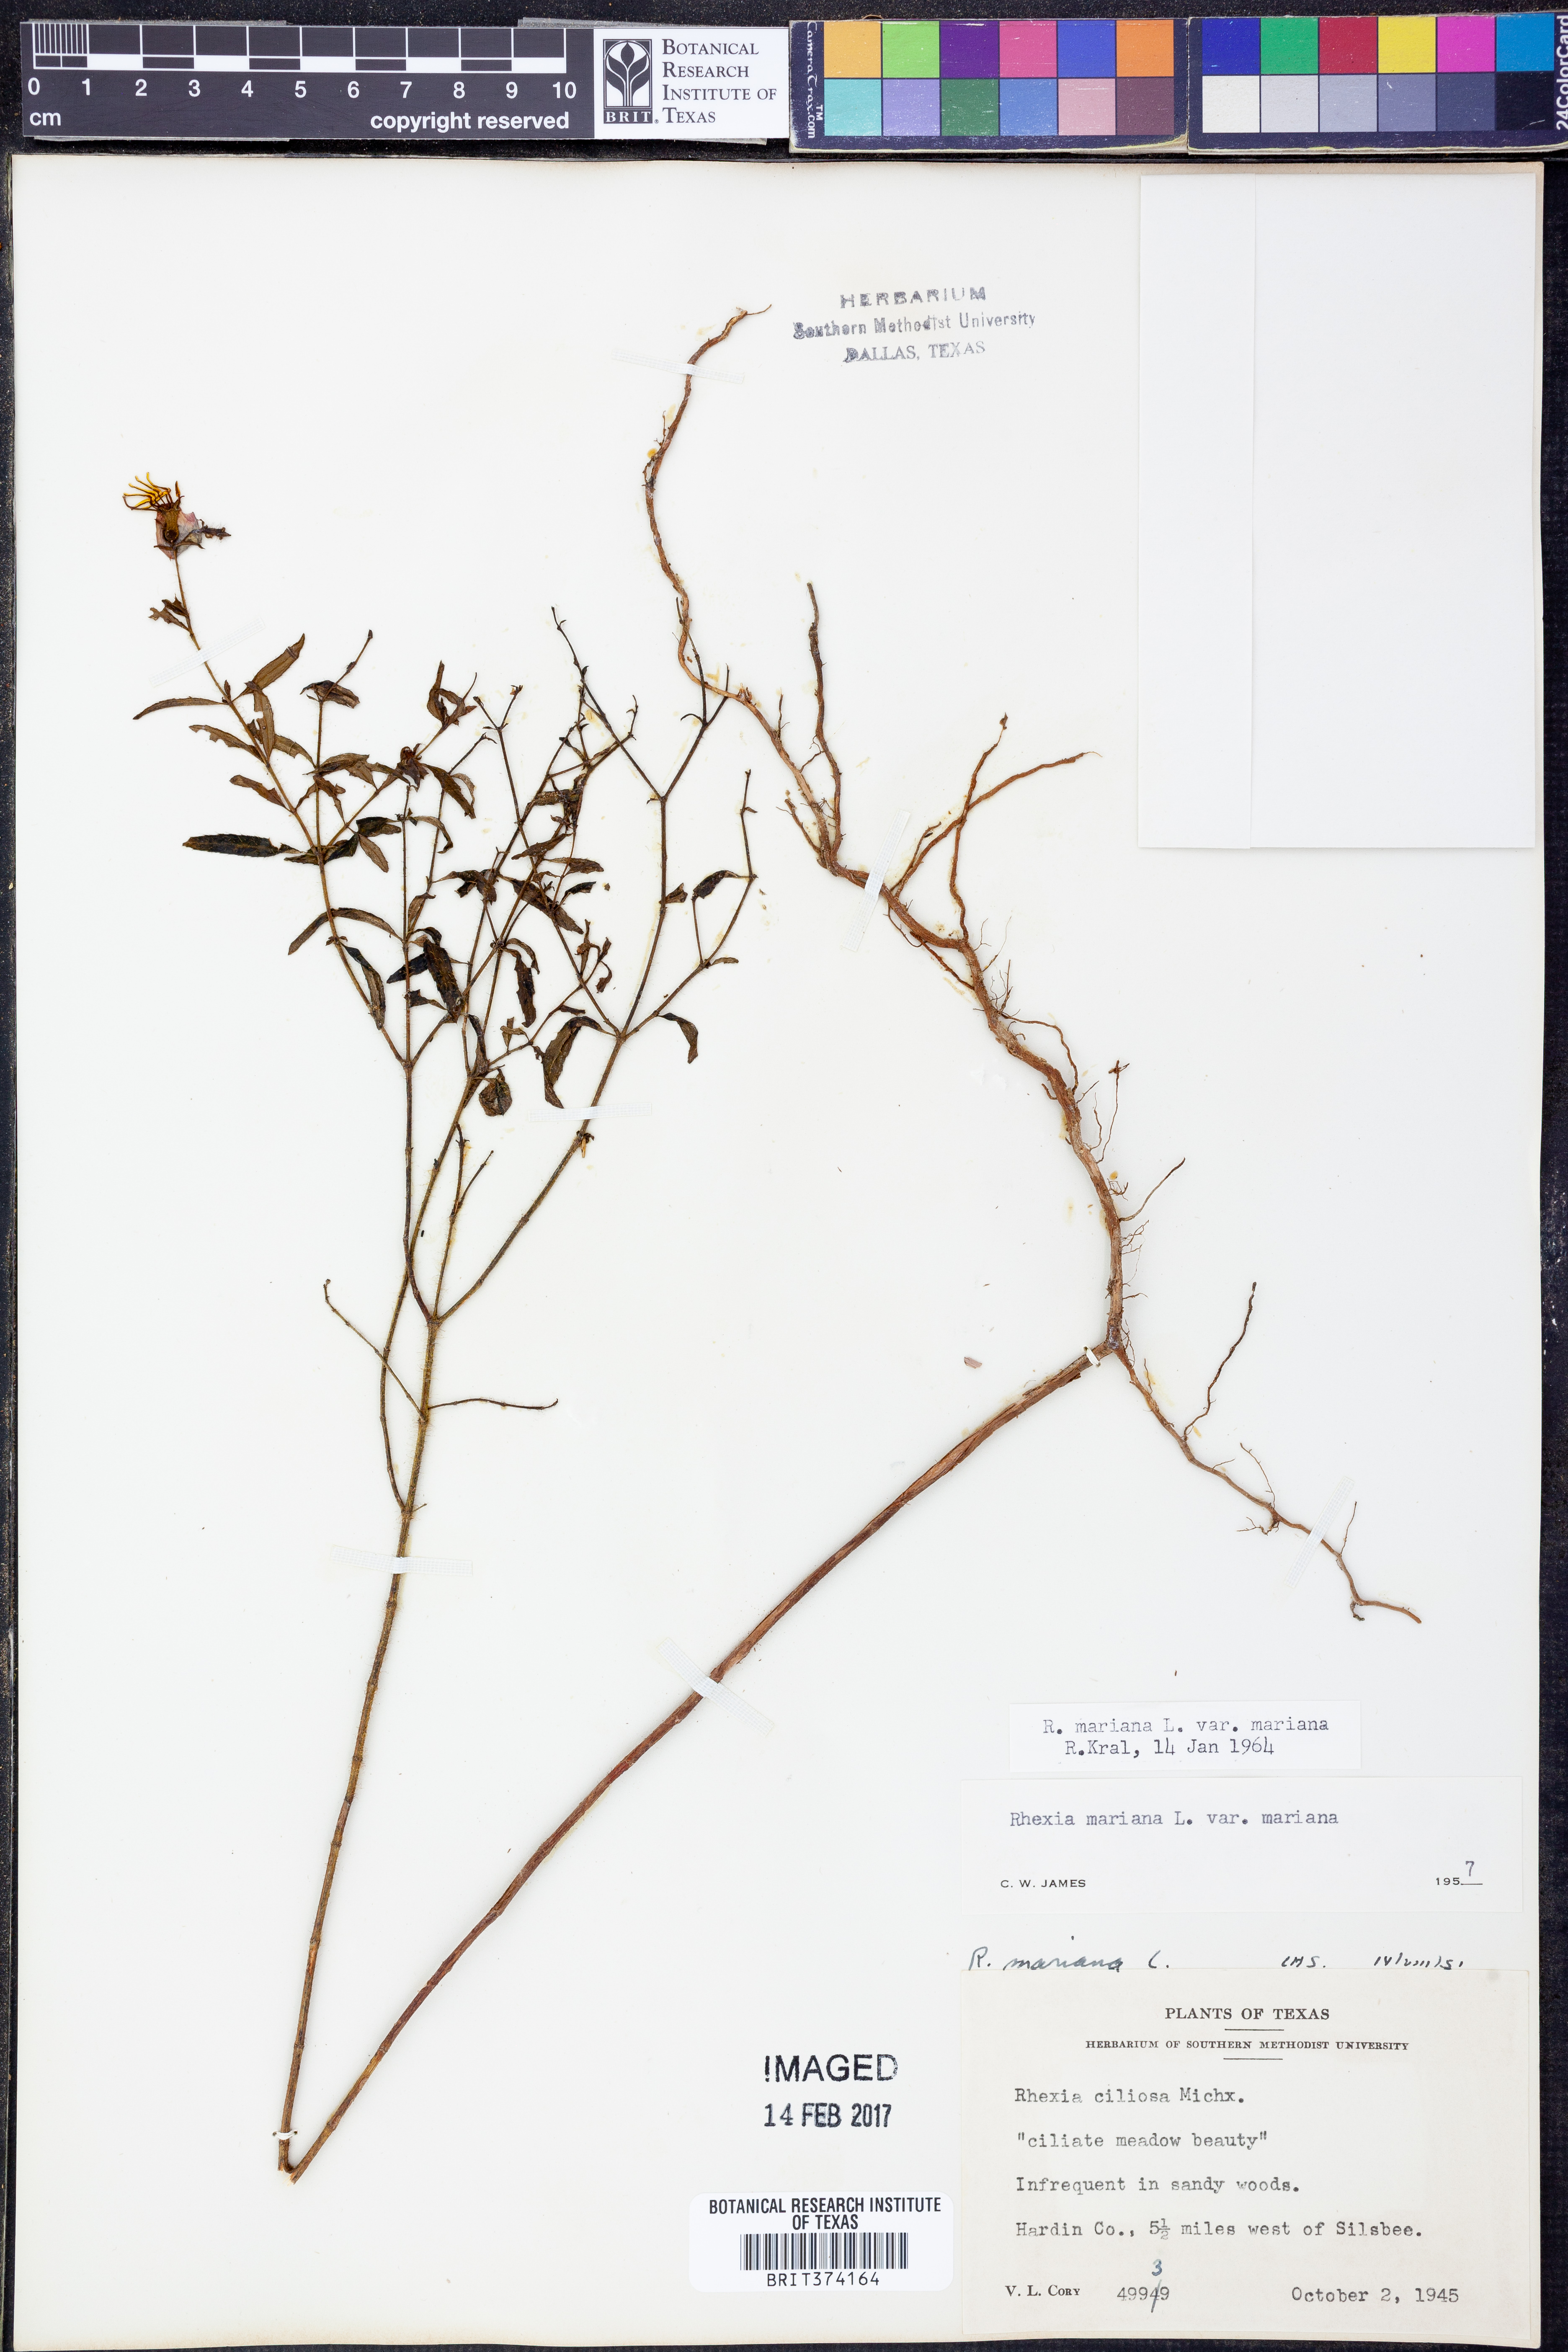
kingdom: Plantae
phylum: Tracheophyta
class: Magnoliopsida
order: Myrtales
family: Melastomataceae
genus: Rhexia
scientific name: Rhexia mariana
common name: Dull meadow-pitcher
